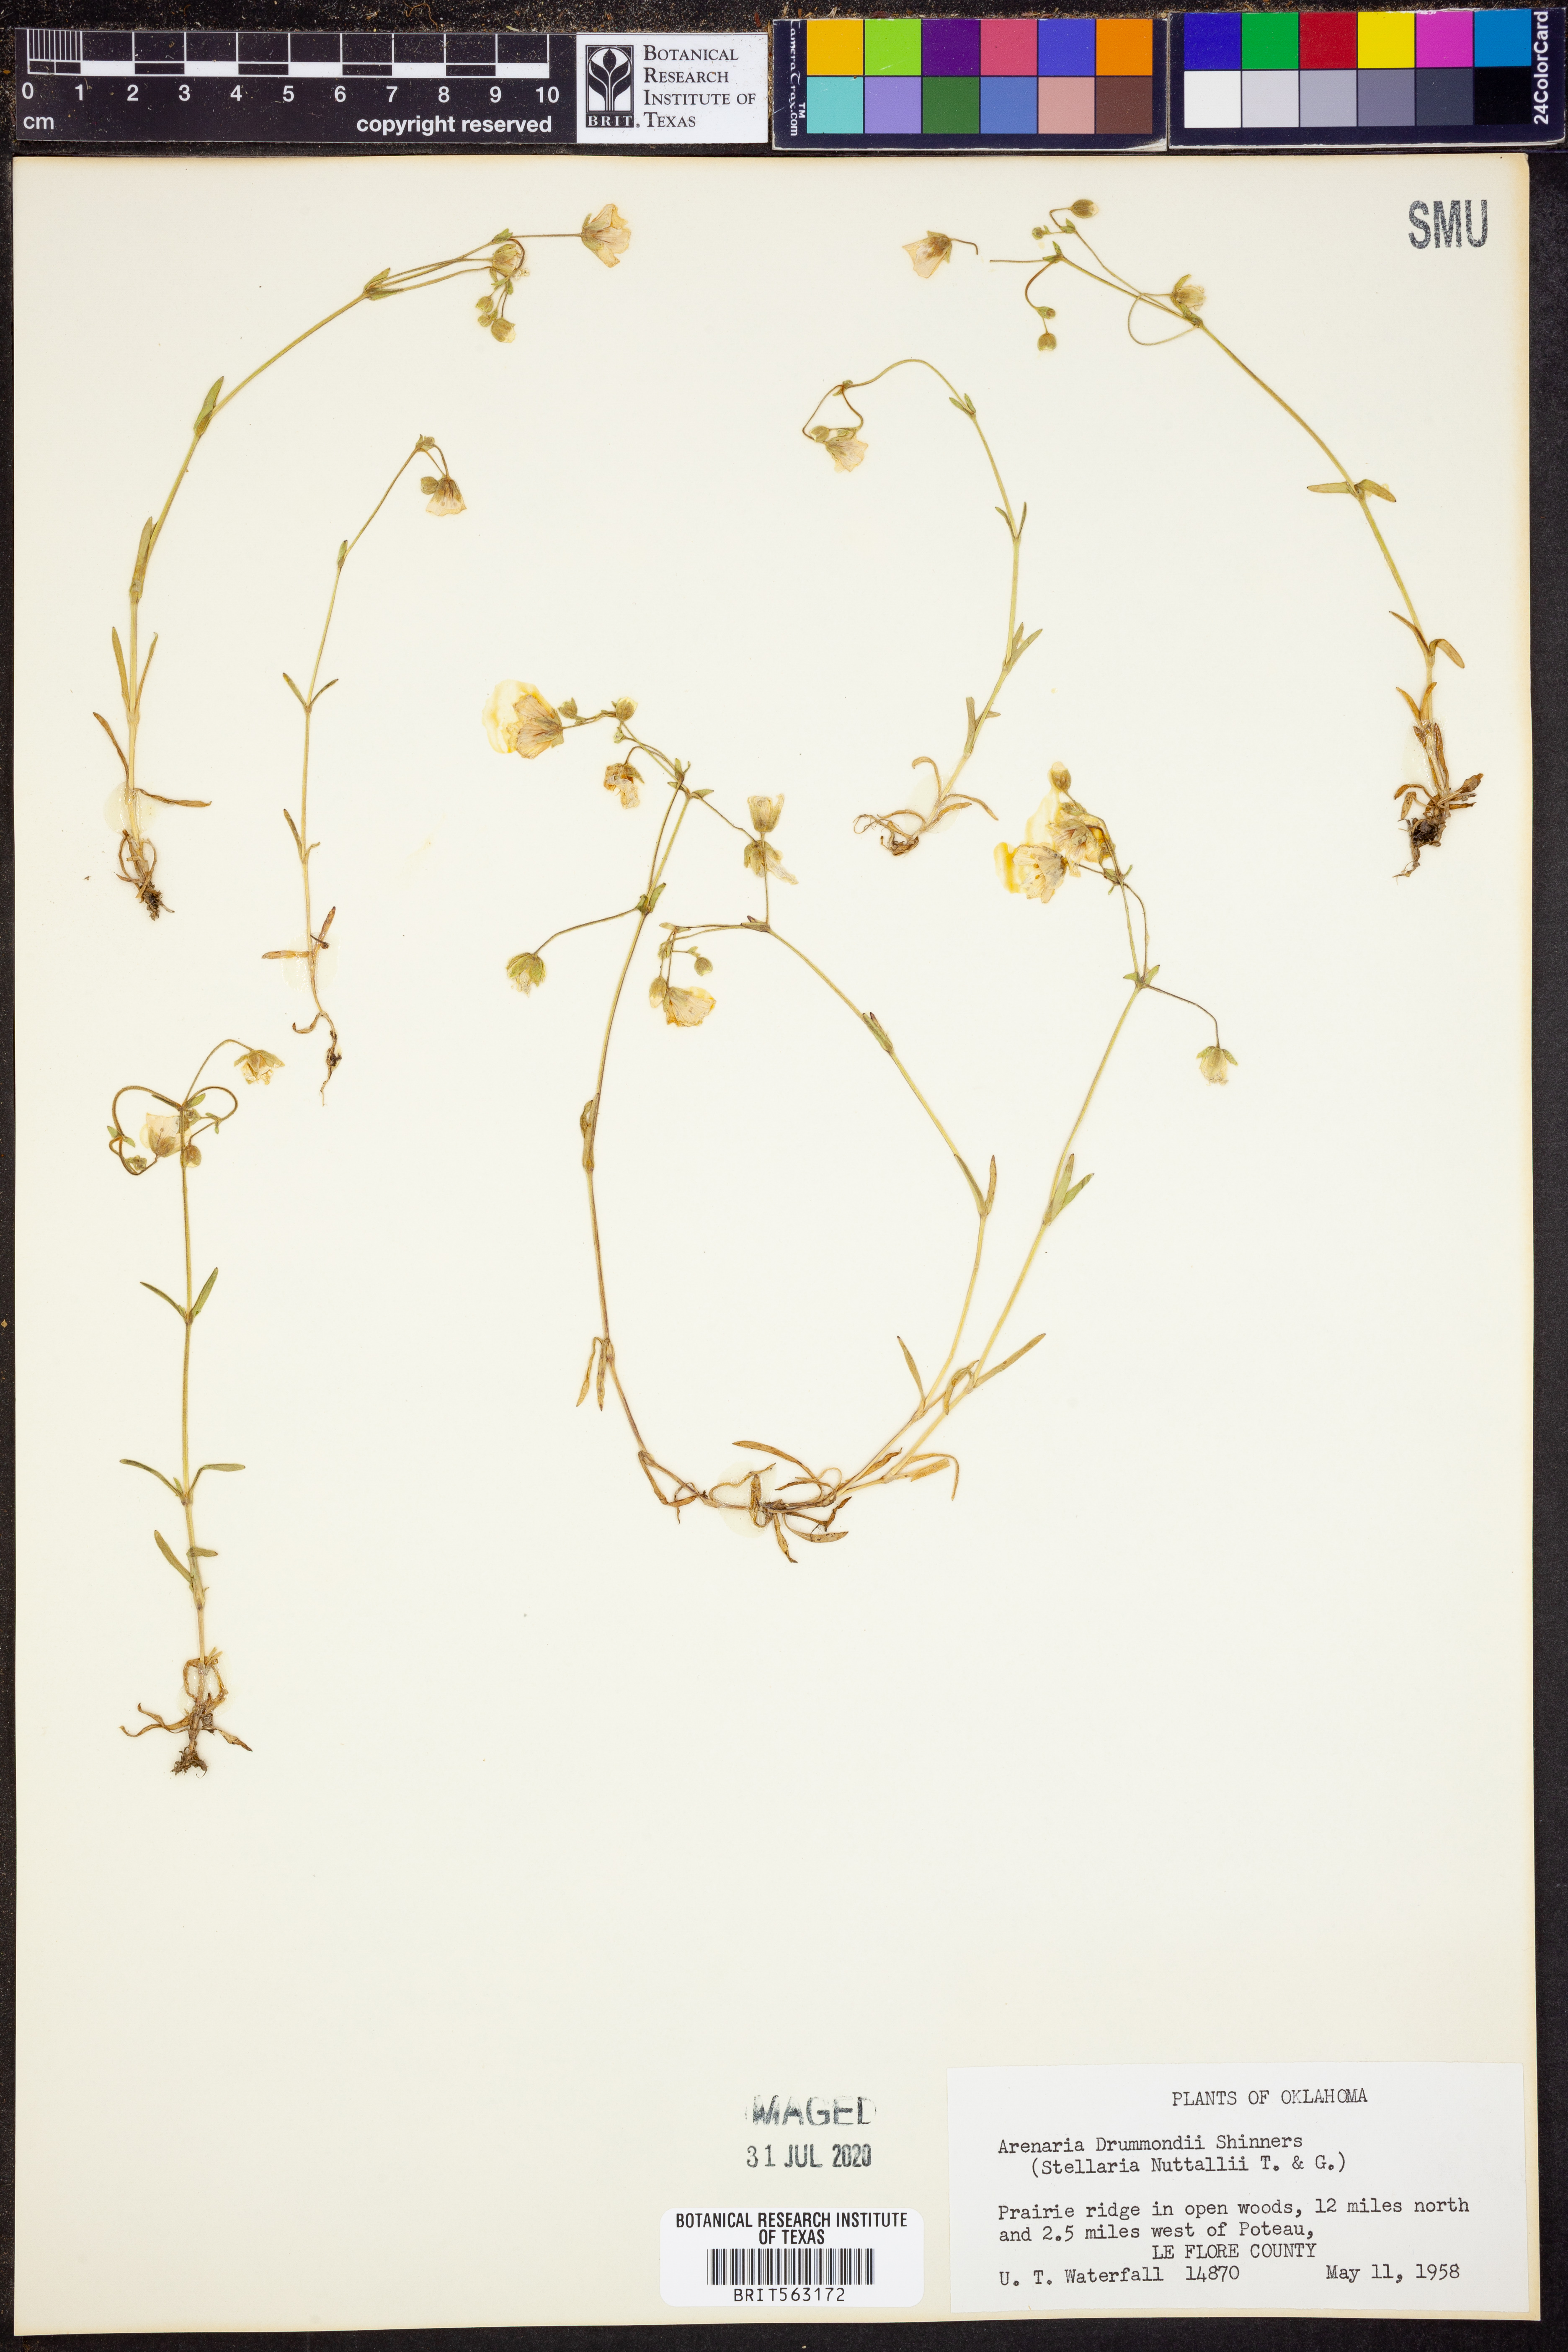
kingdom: Plantae
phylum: Tracheophyta
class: Magnoliopsida
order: Caryophyllales
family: Caryophyllaceae
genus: Geocarpon
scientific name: Geocarpon nuttallii
